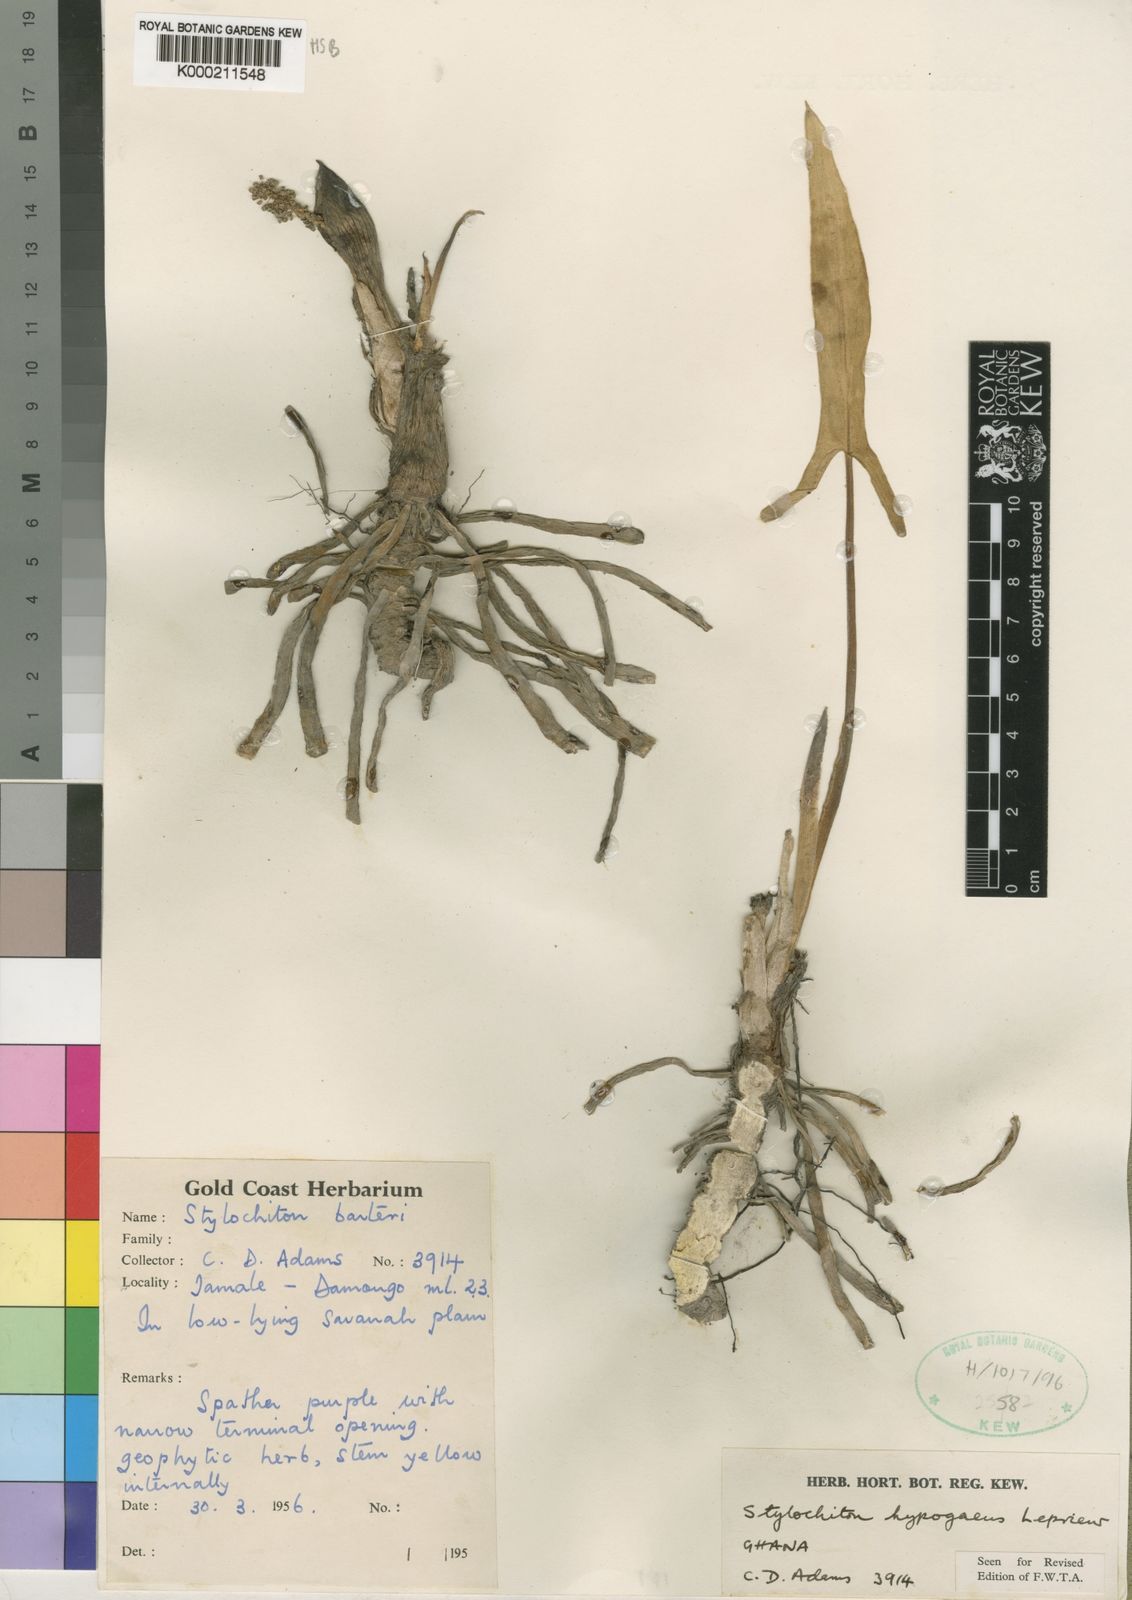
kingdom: Plantae
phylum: Tracheophyta
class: Liliopsida
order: Alismatales
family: Araceae
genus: Stylochaeton
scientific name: Stylochaeton
